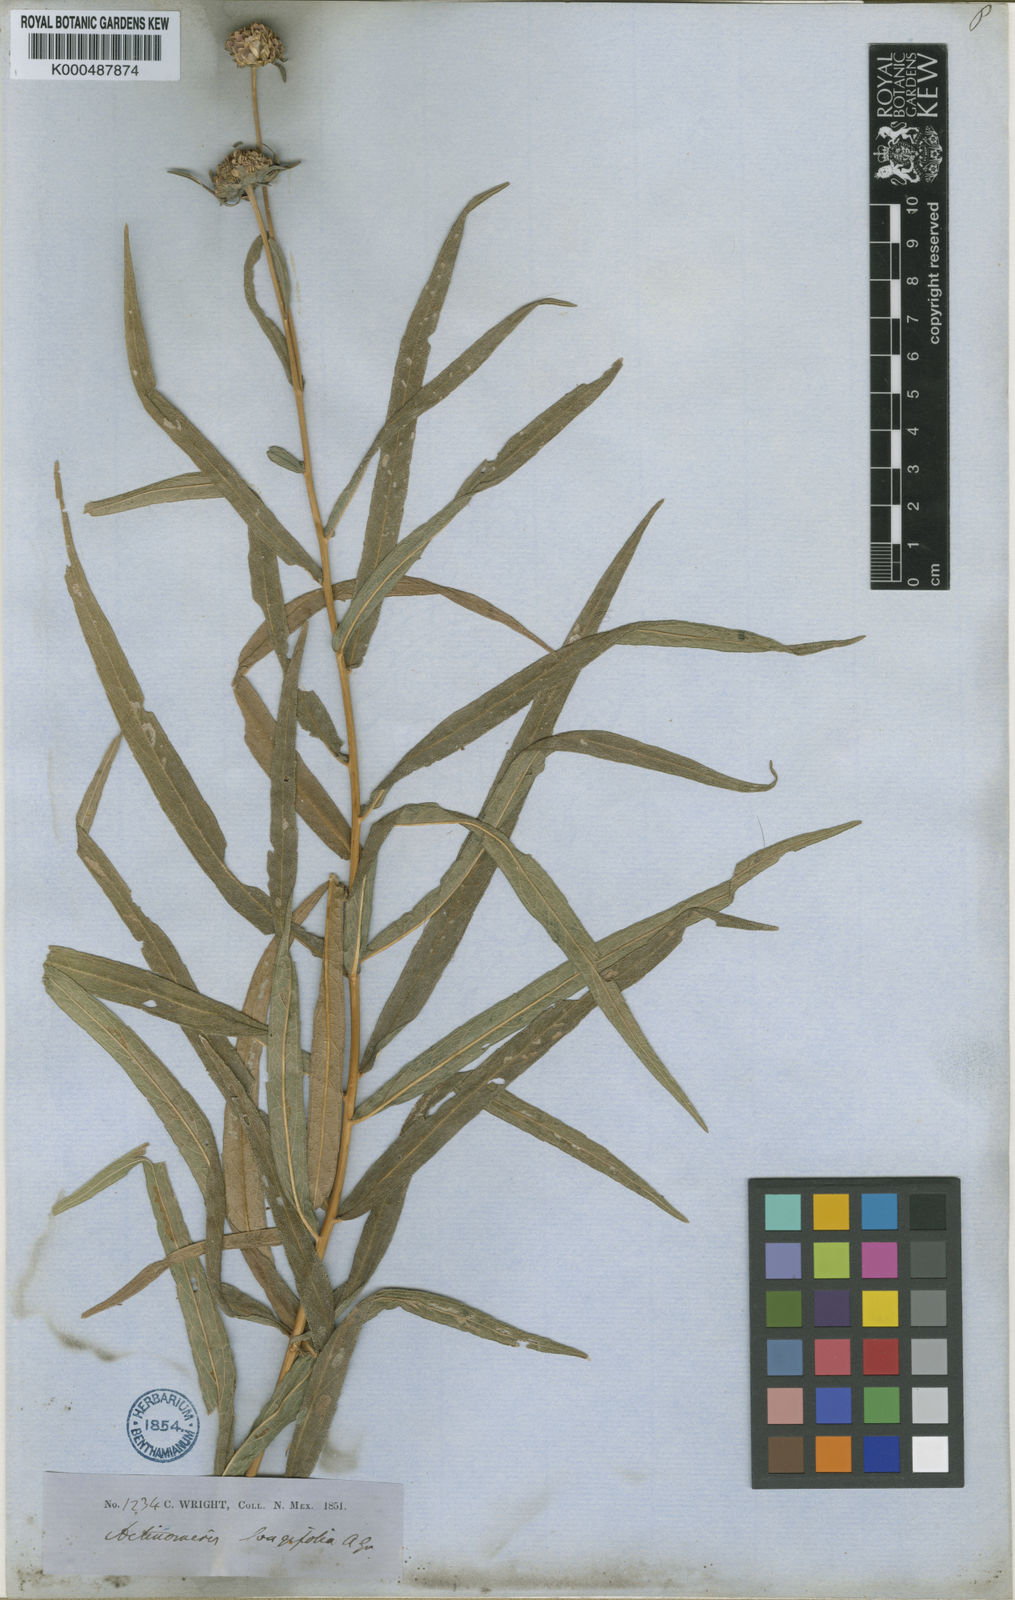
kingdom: Plantae
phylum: Tracheophyta
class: Magnoliopsida
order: Asterales
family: Asteraceae
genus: Verbesina
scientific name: Verbesina longifolia
